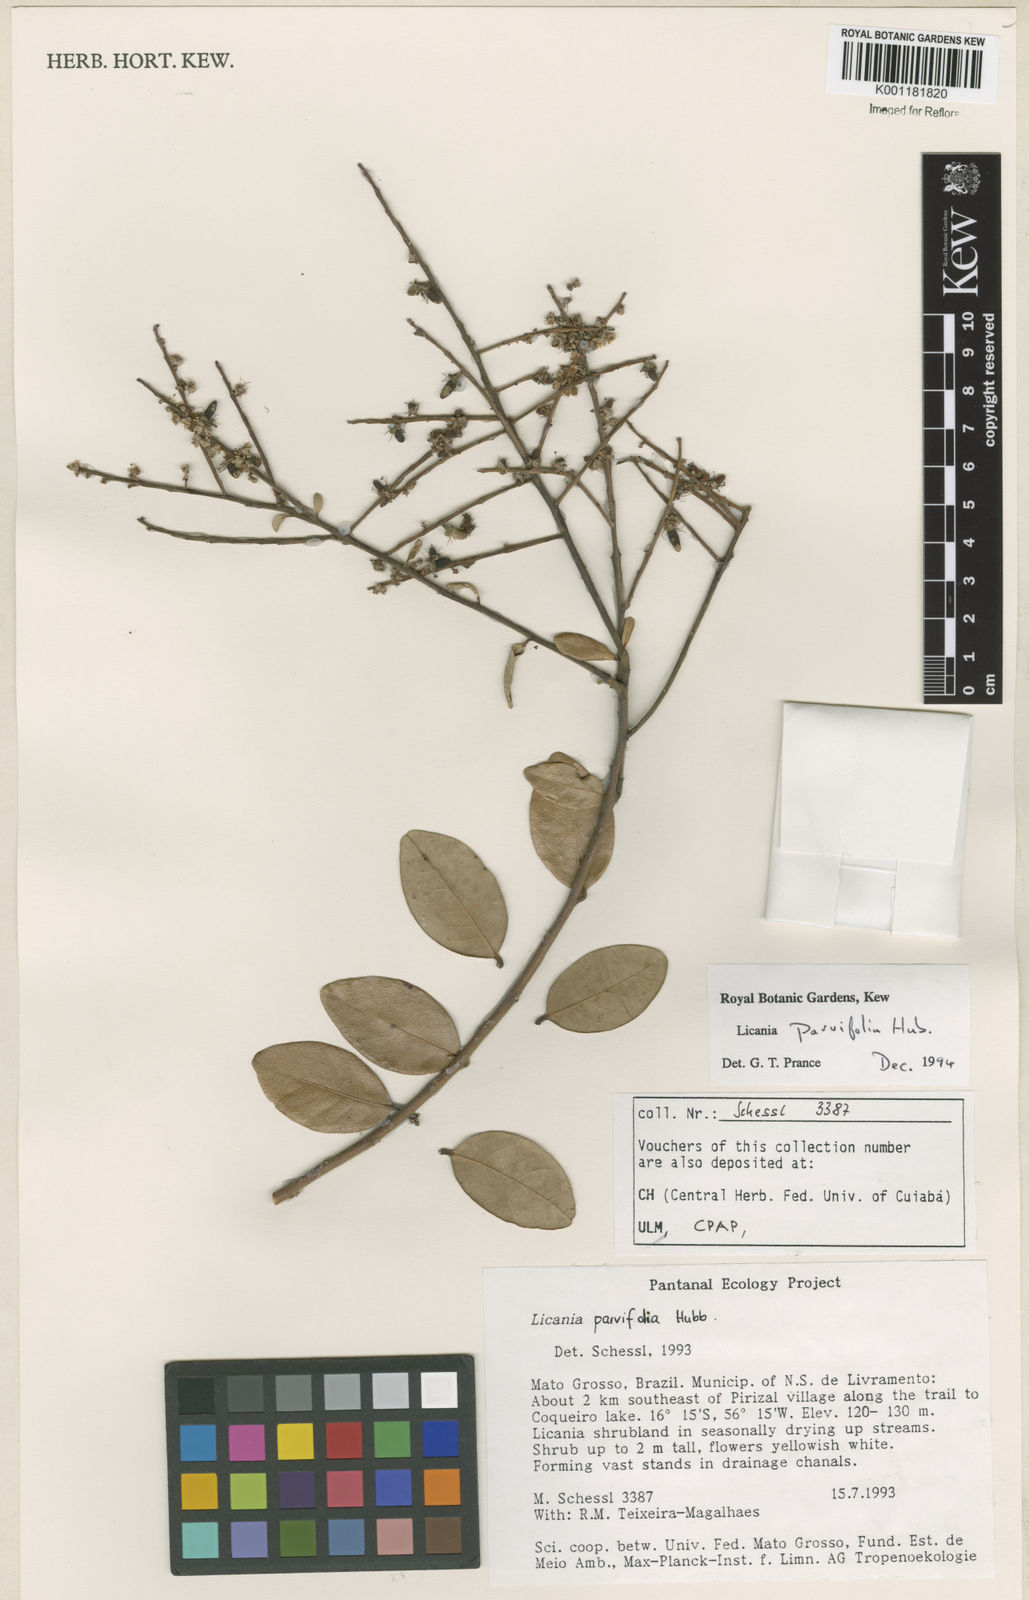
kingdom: Plantae
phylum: Tracheophyta
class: Magnoliopsida
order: Malpighiales
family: Chrysobalanaceae
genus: Licania
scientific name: Licania parvifolia
